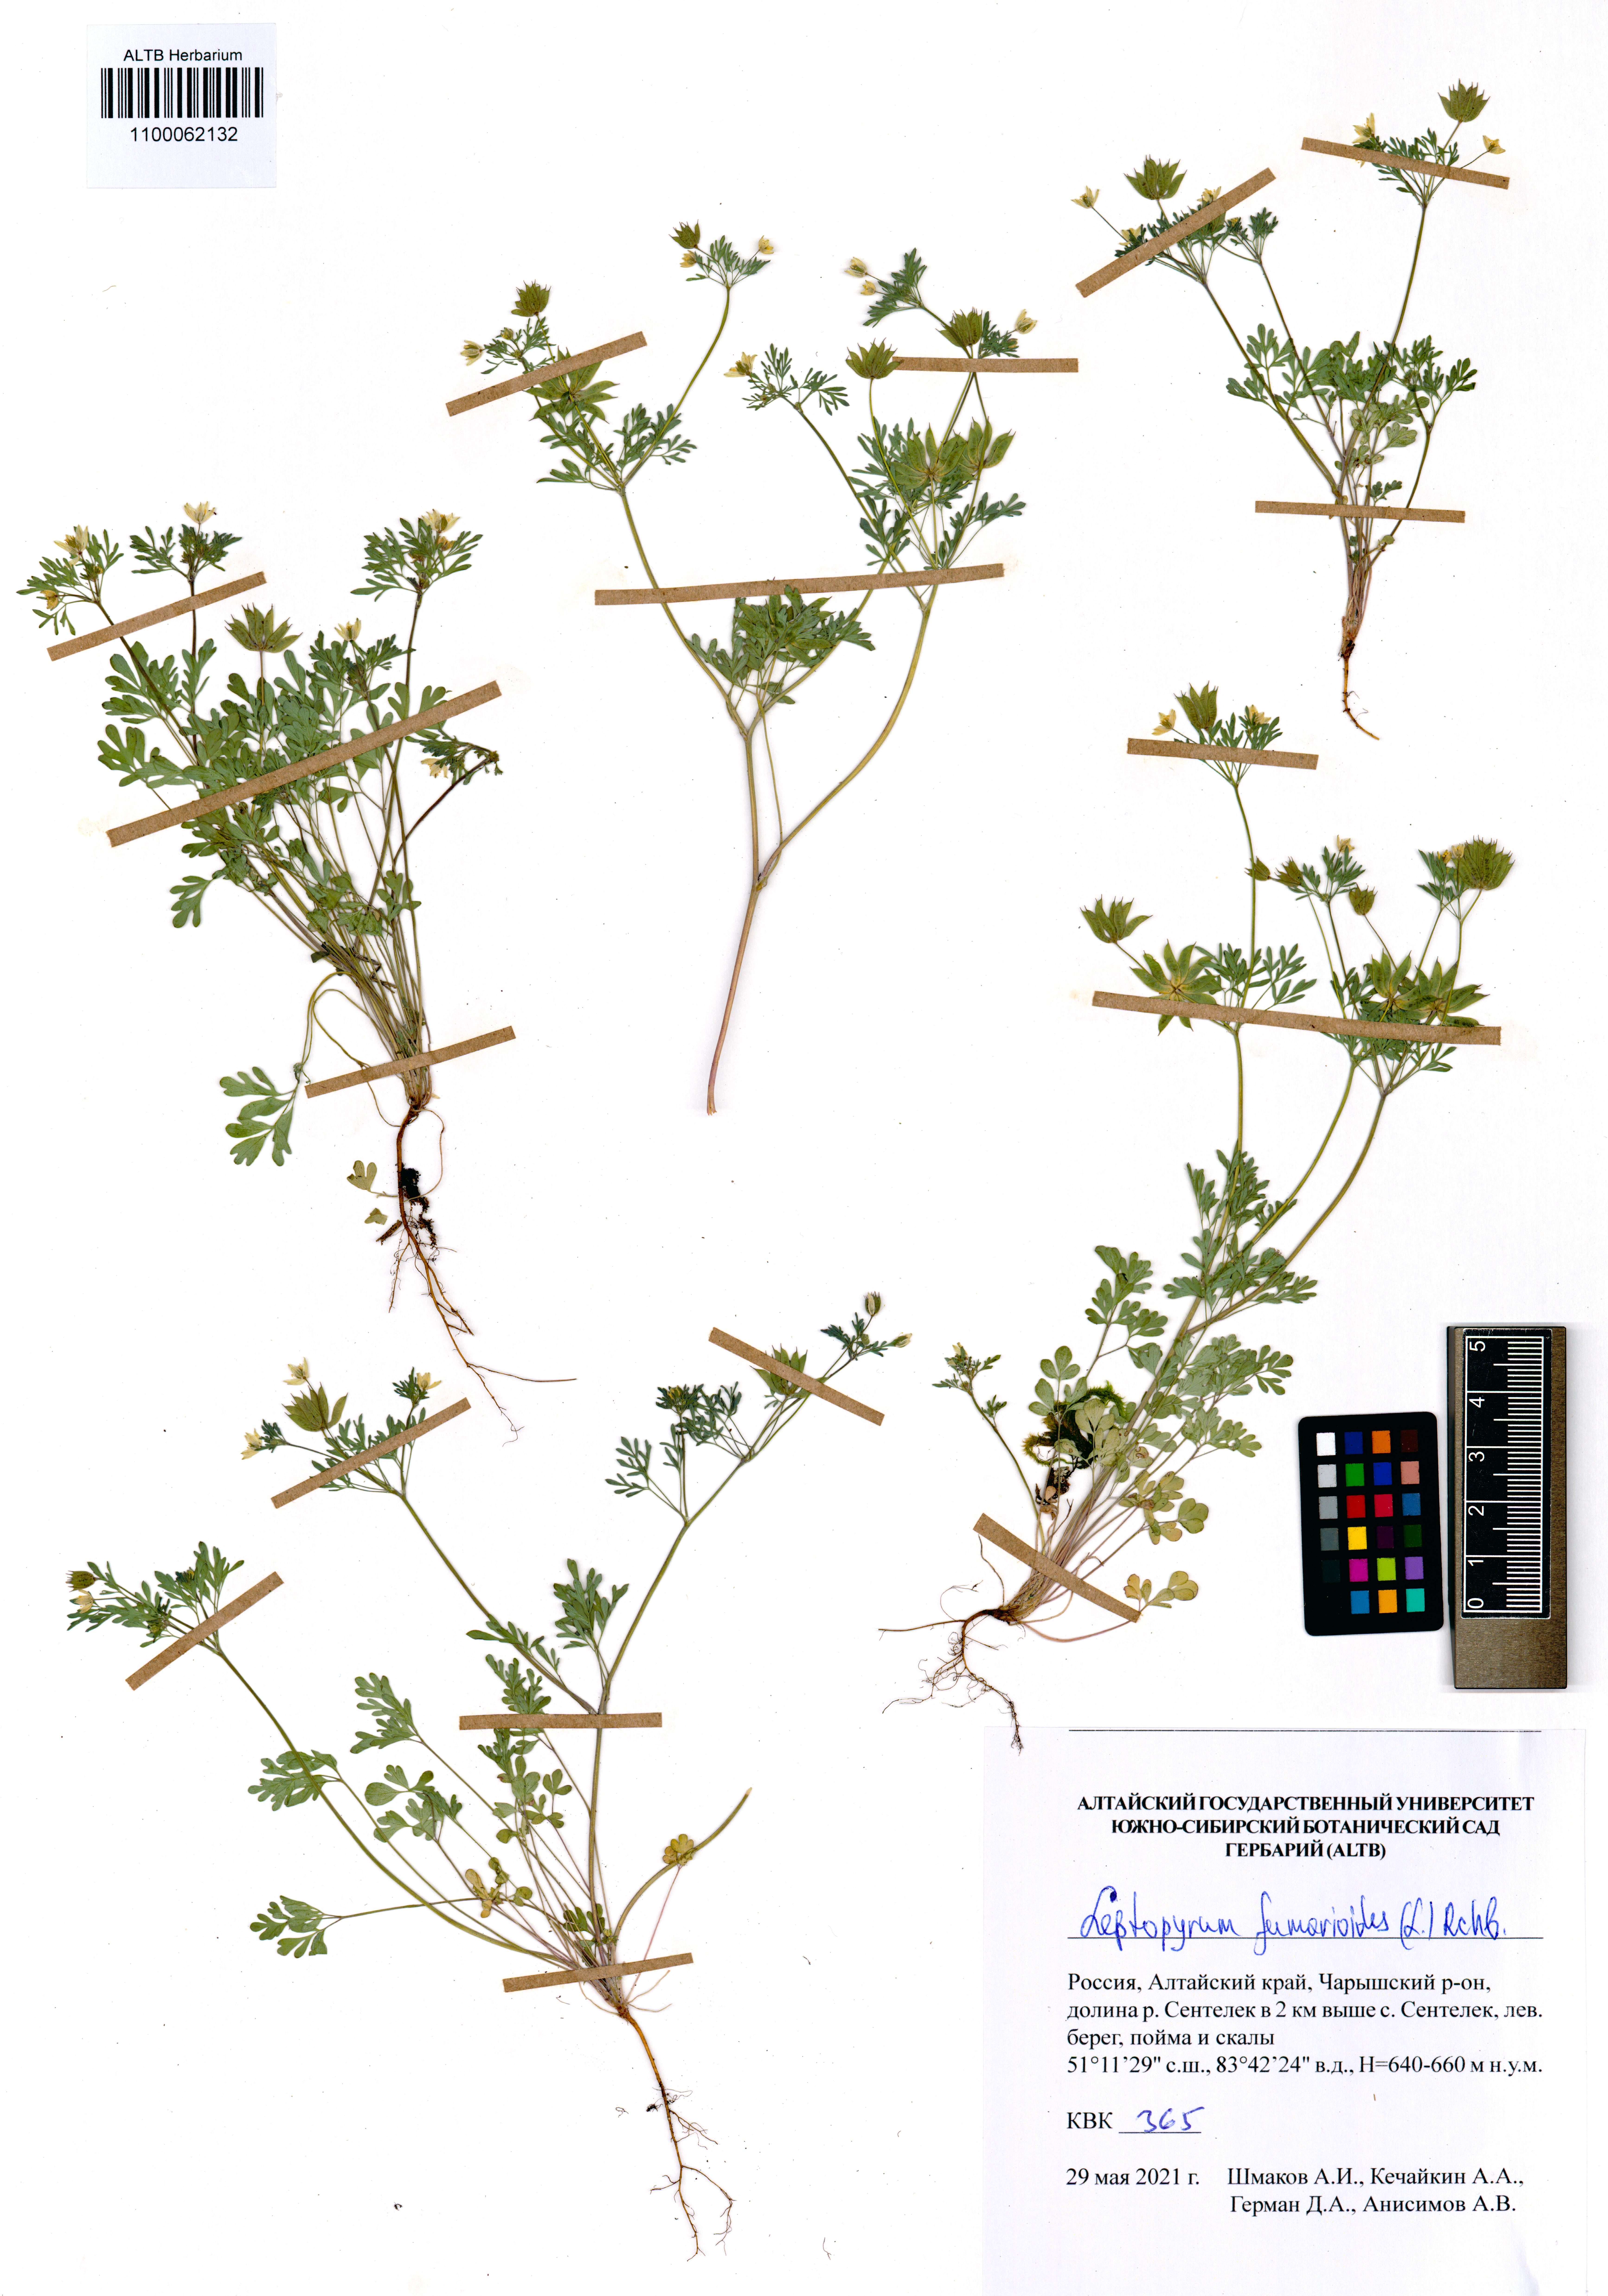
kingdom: Plantae
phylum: Tracheophyta
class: Magnoliopsida
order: Ranunculales
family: Ranunculaceae
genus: Leptopyrum
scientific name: Leptopyrum fumarioides
